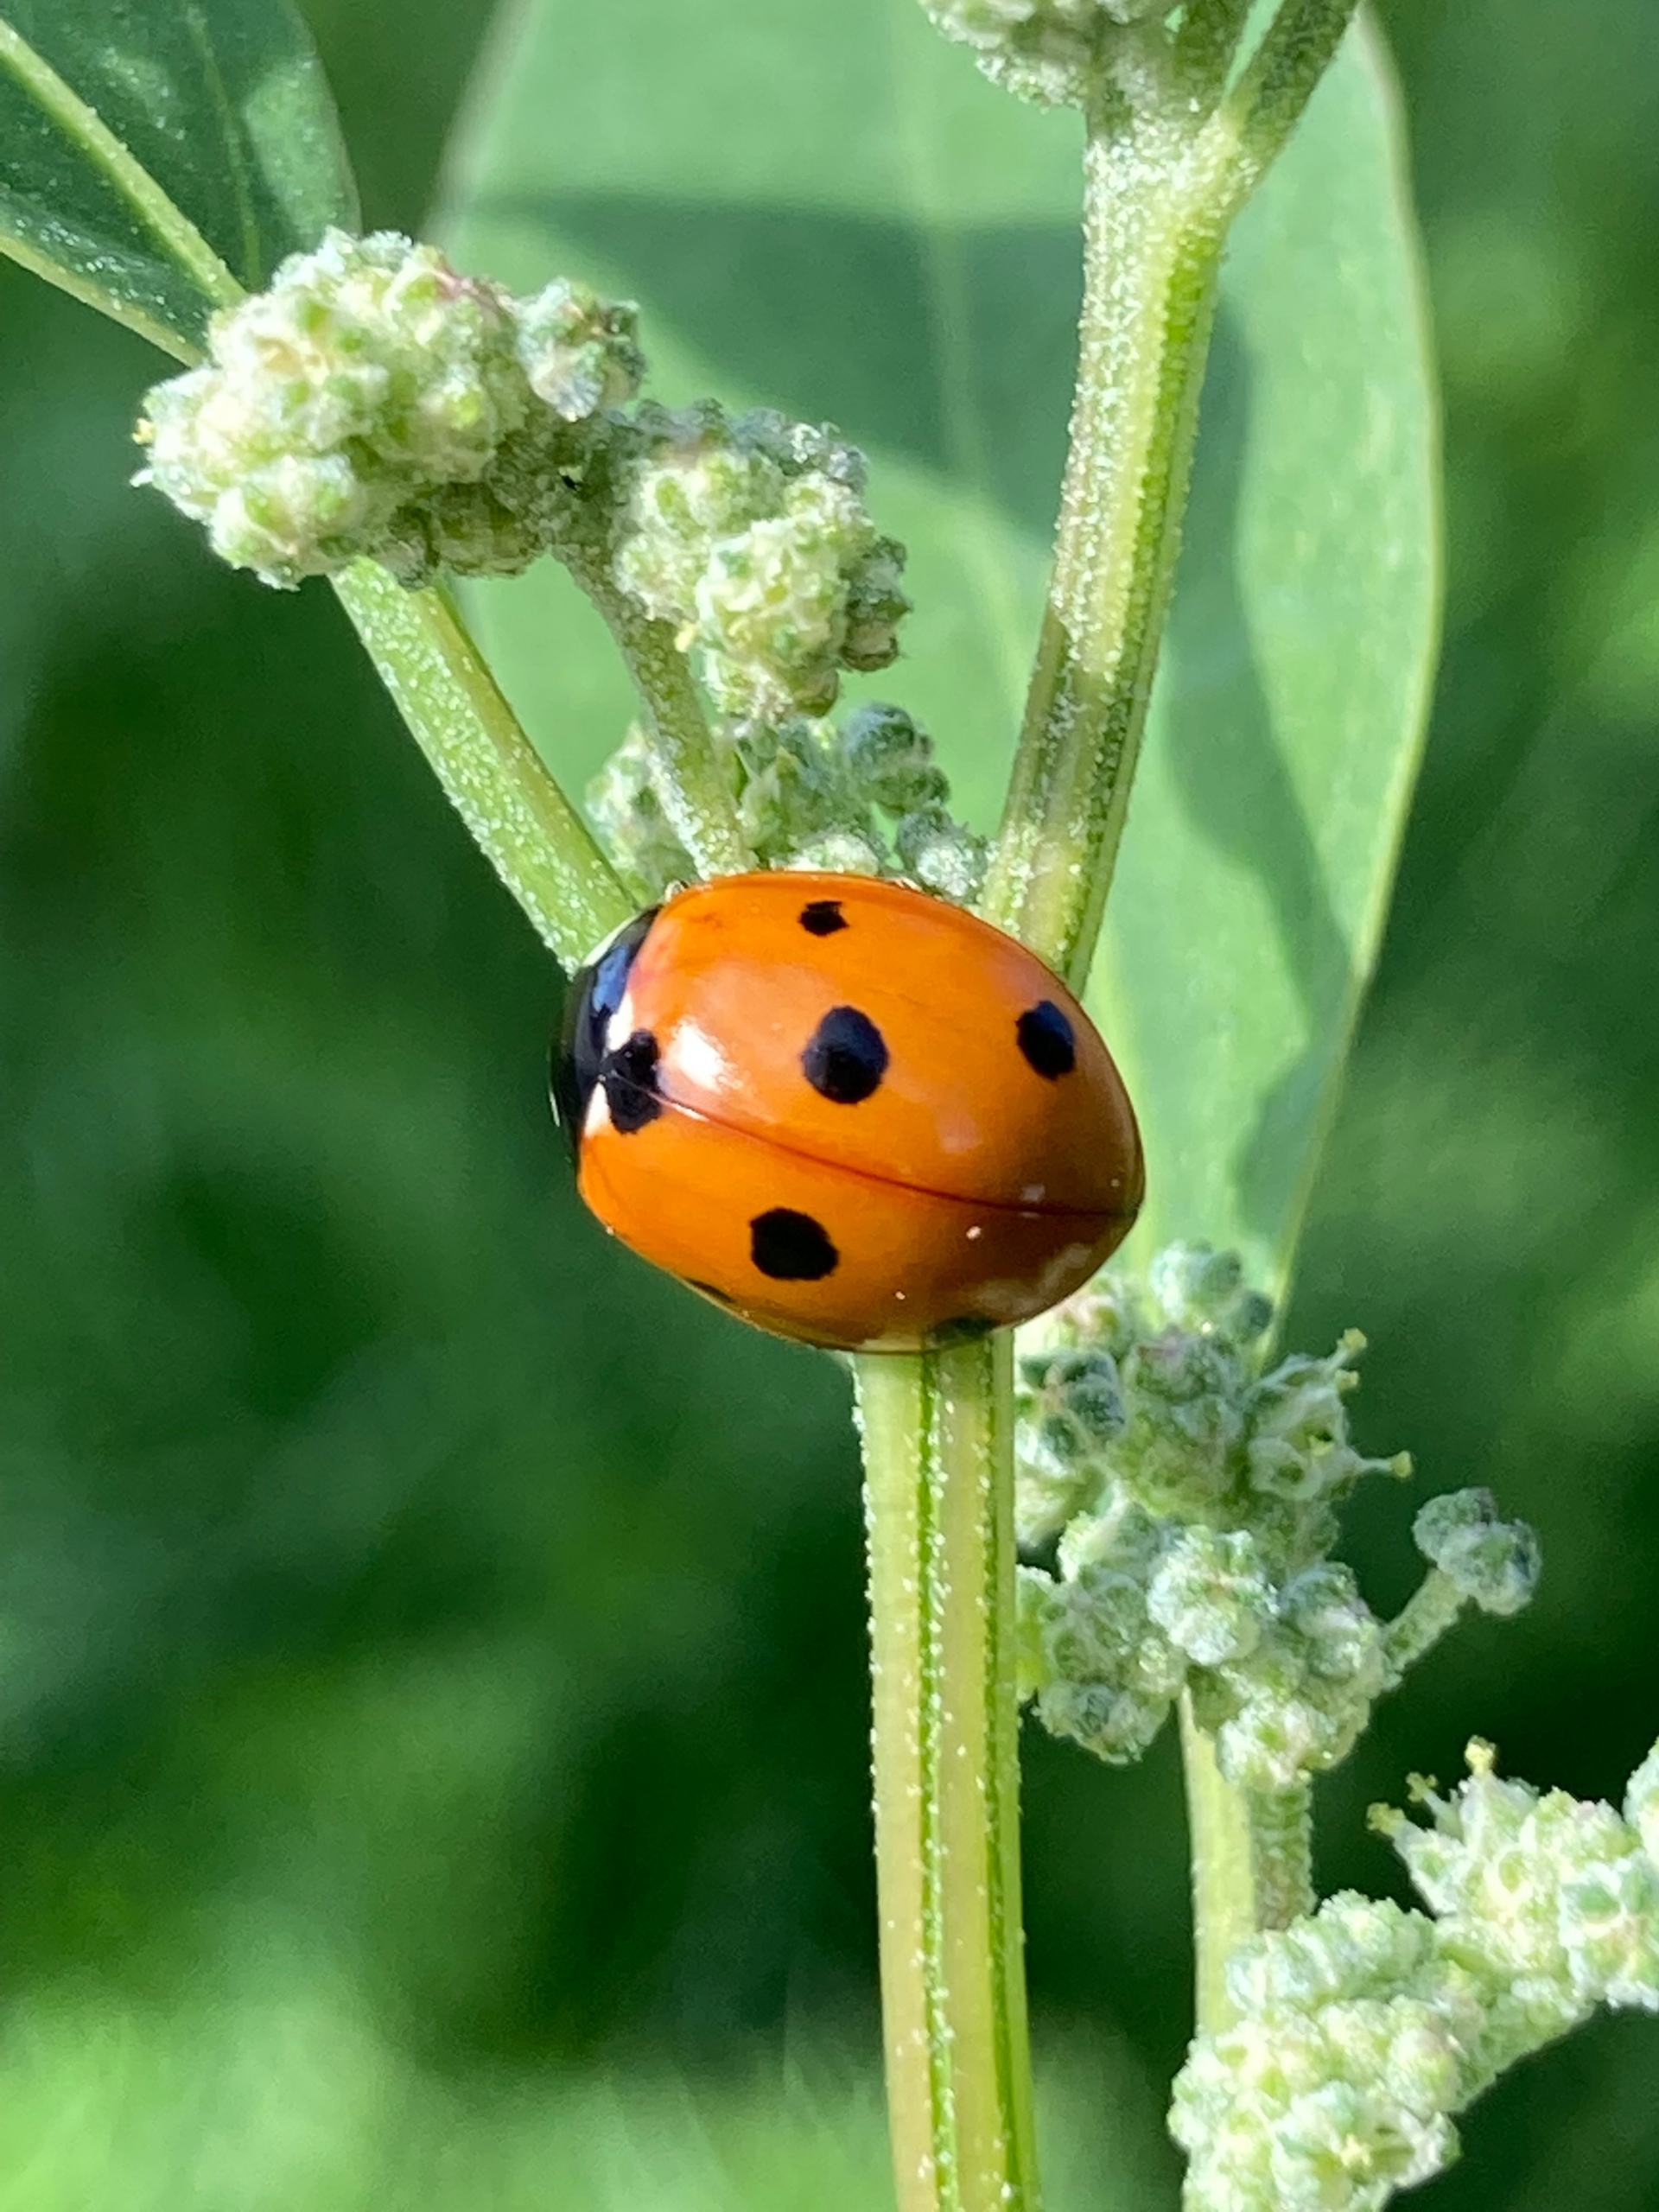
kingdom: Animalia
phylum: Arthropoda
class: Insecta
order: Coleoptera
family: Coccinellidae
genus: Coccinella
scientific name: Coccinella septempunctata
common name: Syvplettet mariehøne
